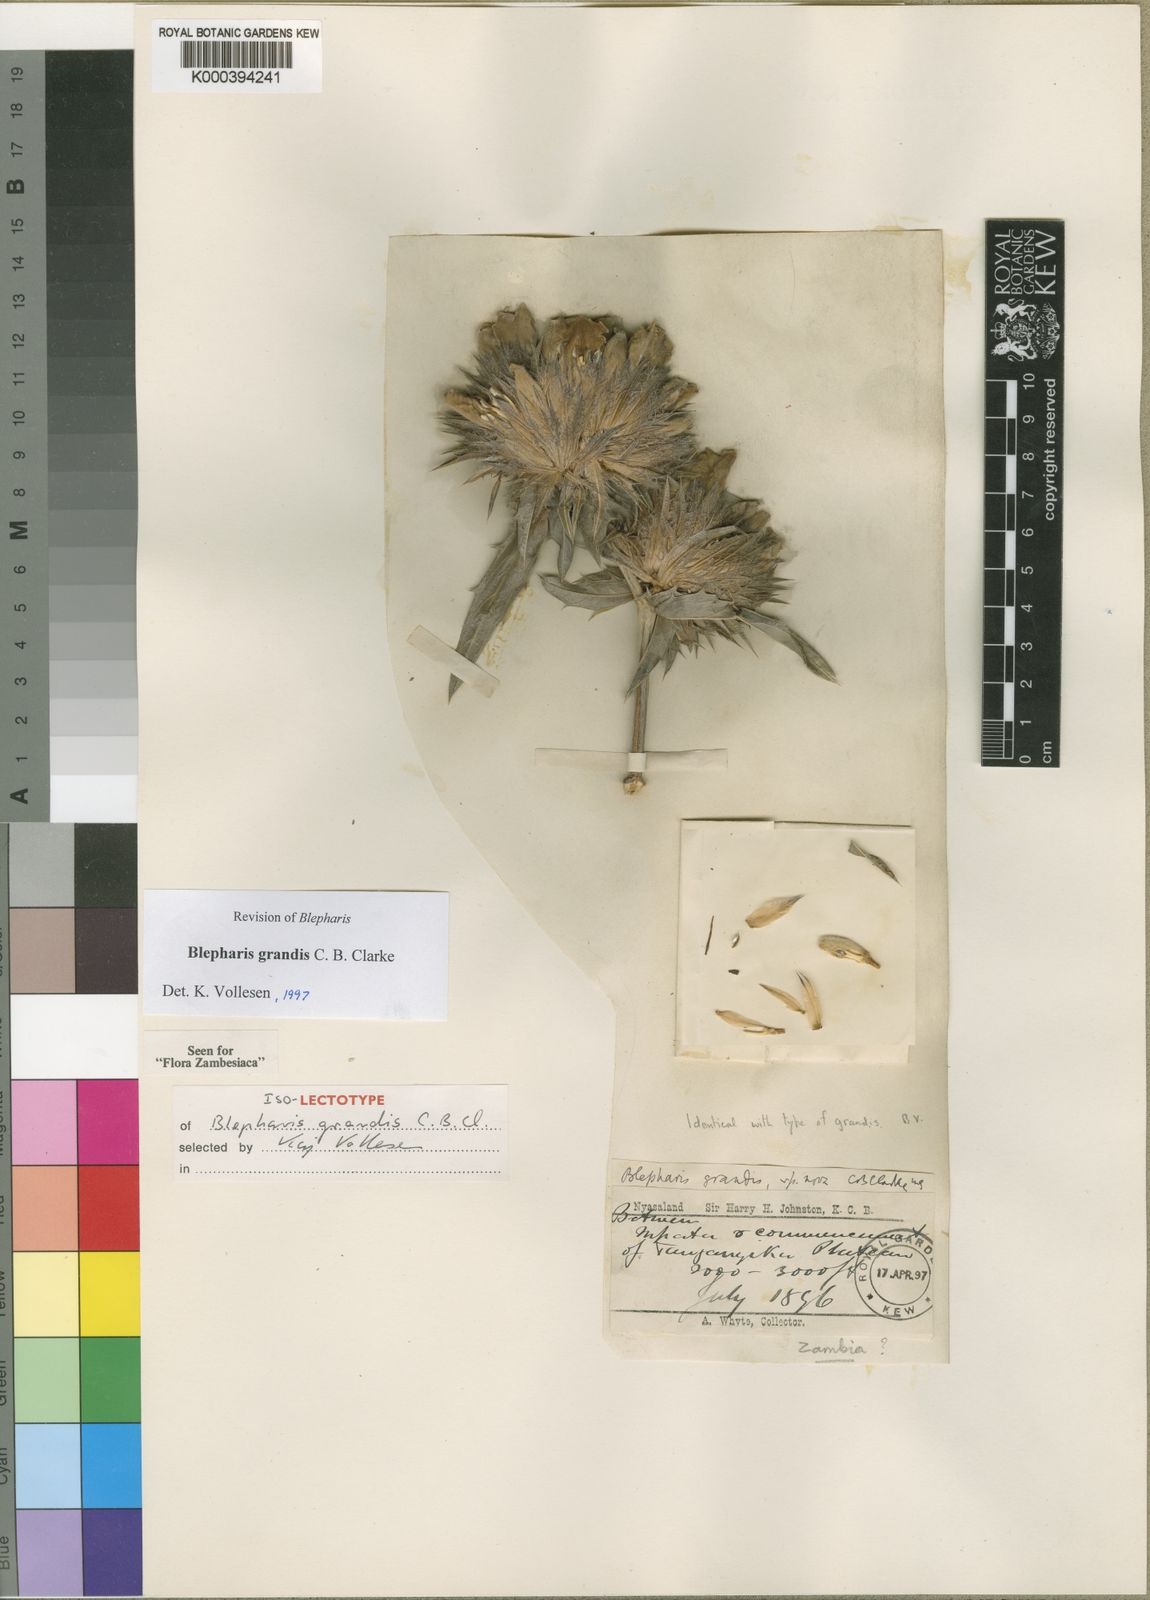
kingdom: Plantae
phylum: Tracheophyta
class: Magnoliopsida
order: Lamiales
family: Acanthaceae
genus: Blepharis
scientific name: Blepharis grandis
